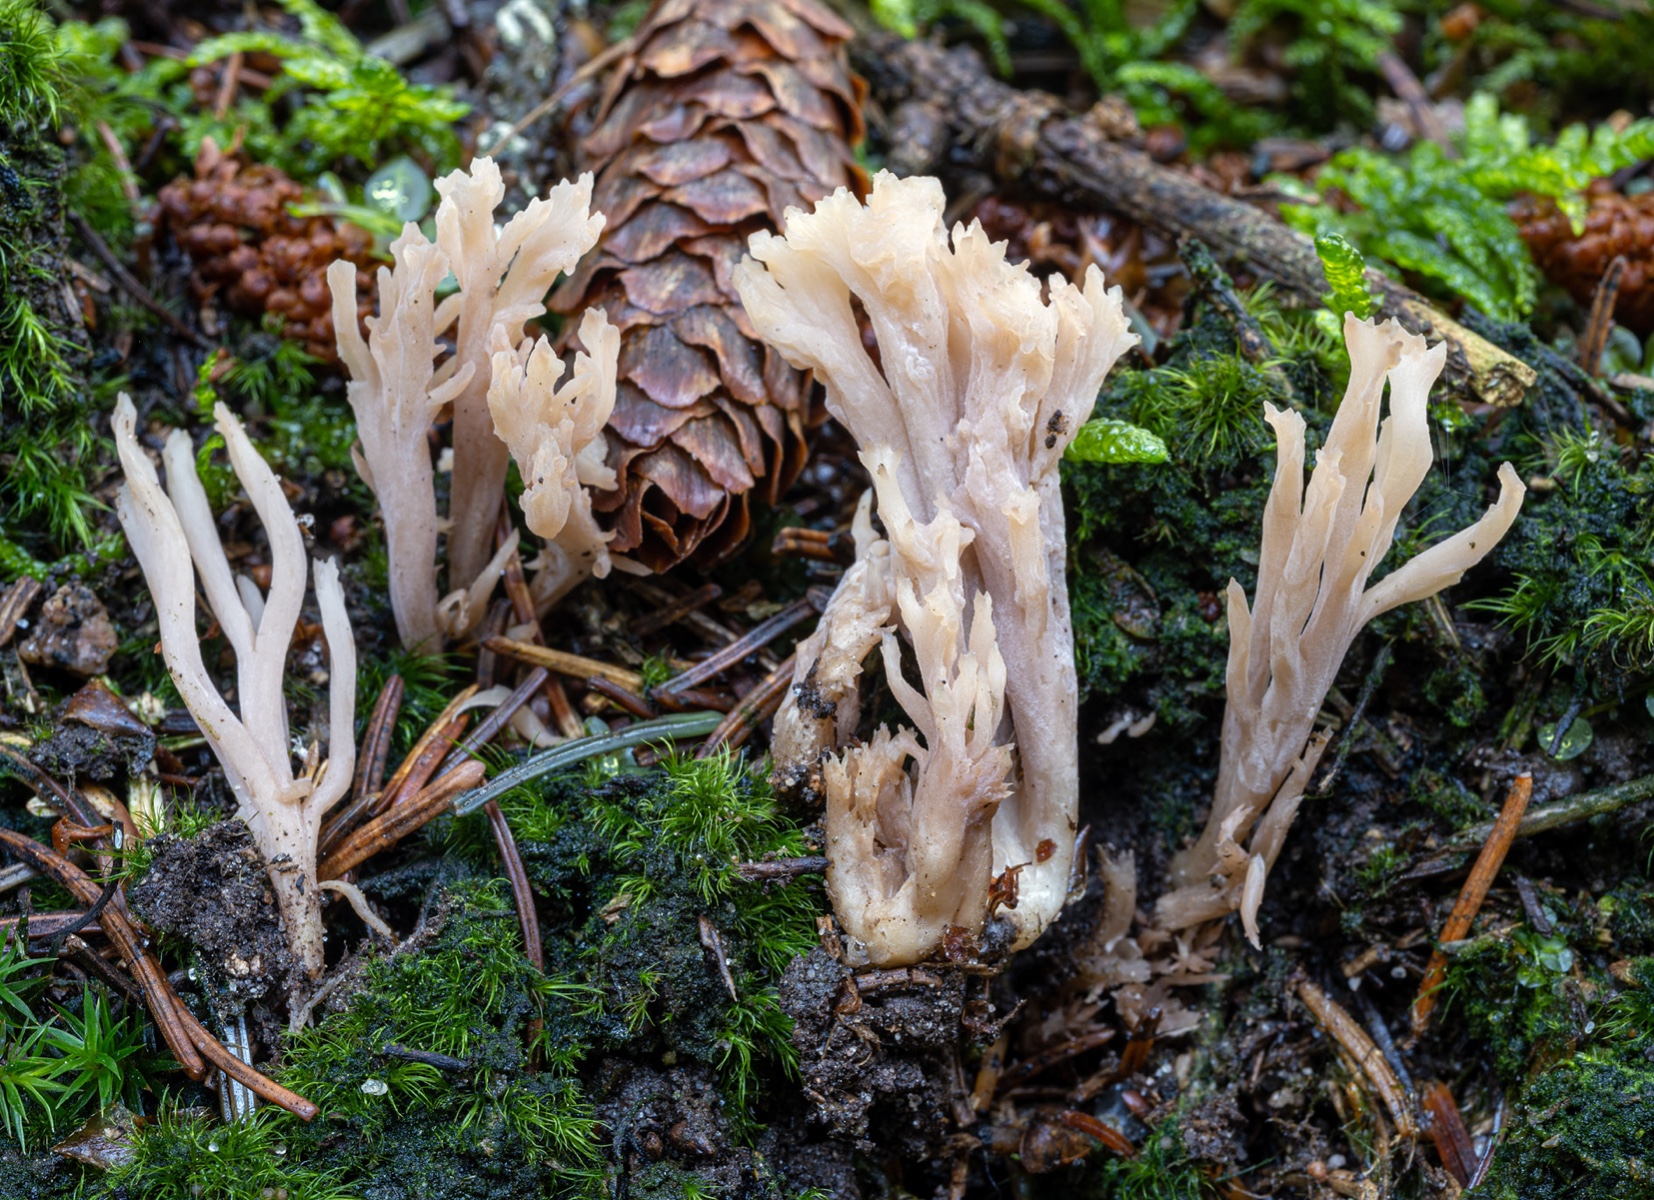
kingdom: Fungi
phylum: Basidiomycota
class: Agaricomycetes
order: Cantharellales
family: Hydnaceae
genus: Clavulina
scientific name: Clavulina incarnata
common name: dunet troldkølle
